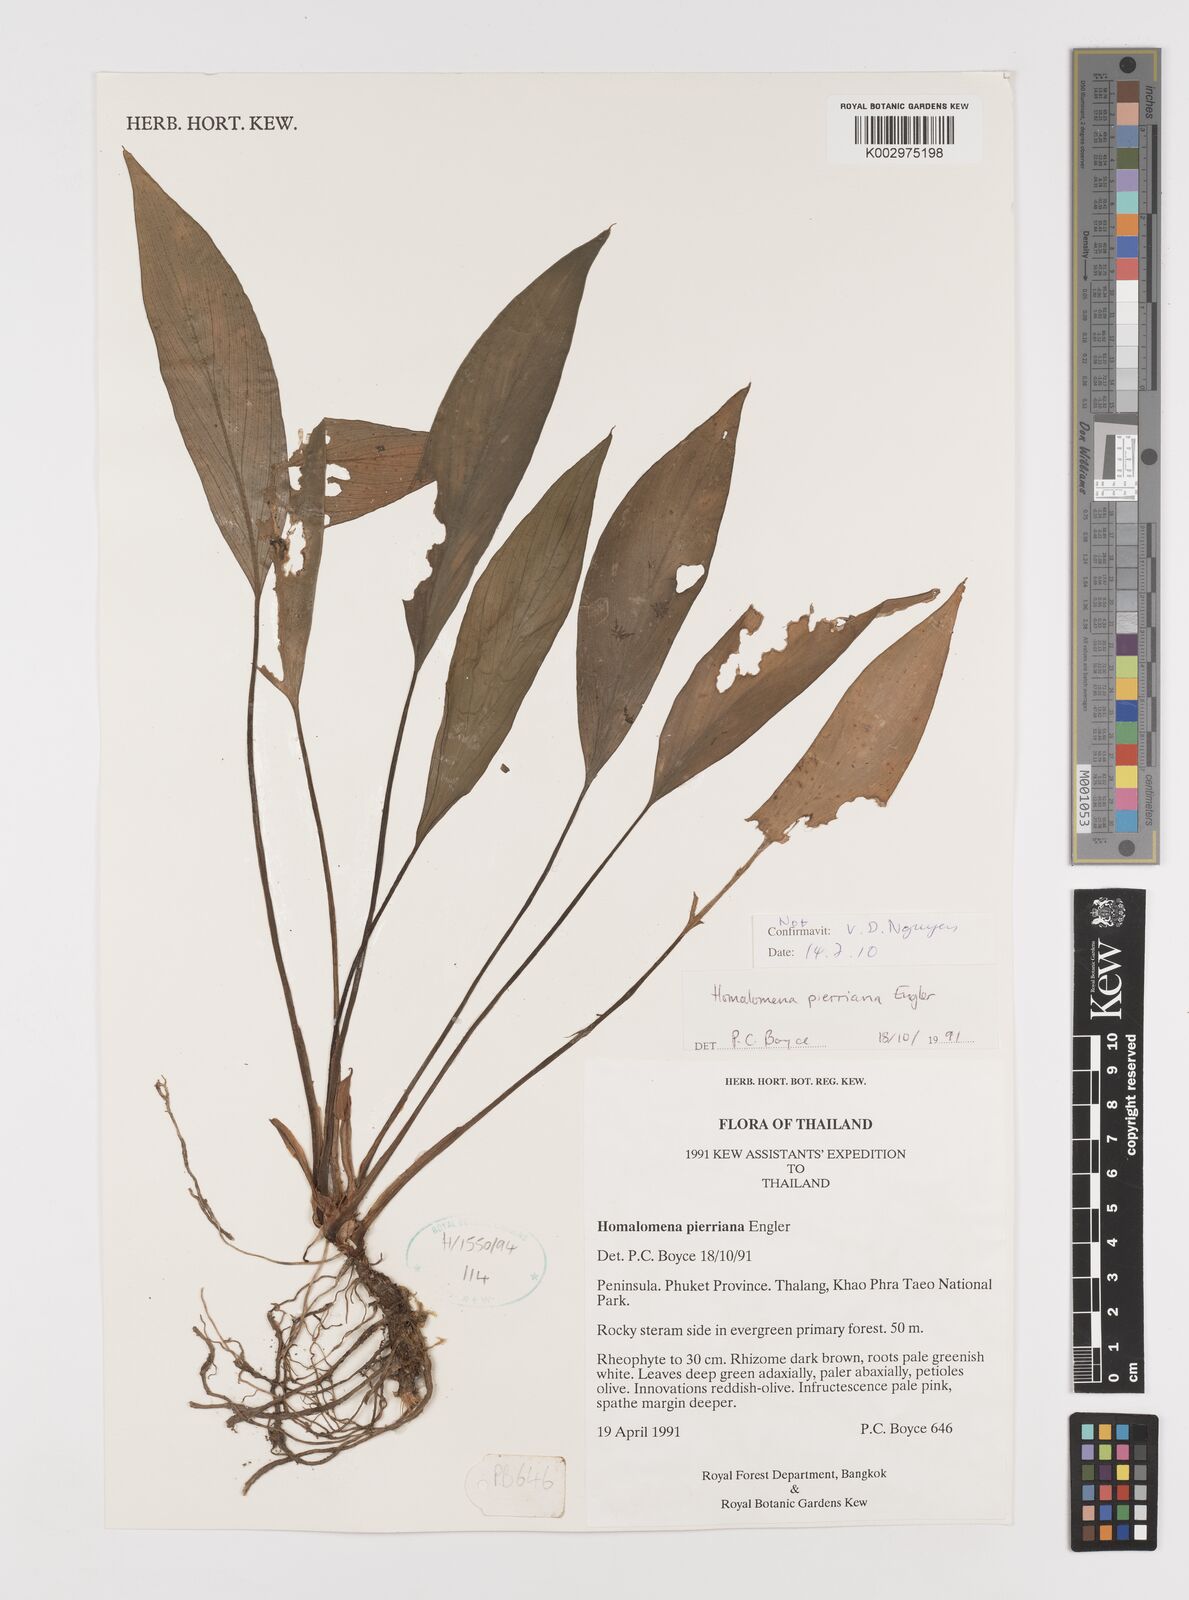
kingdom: Plantae
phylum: Tracheophyta
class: Liliopsida
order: Alismatales
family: Araceae
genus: Homalomena
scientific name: Homalomena
